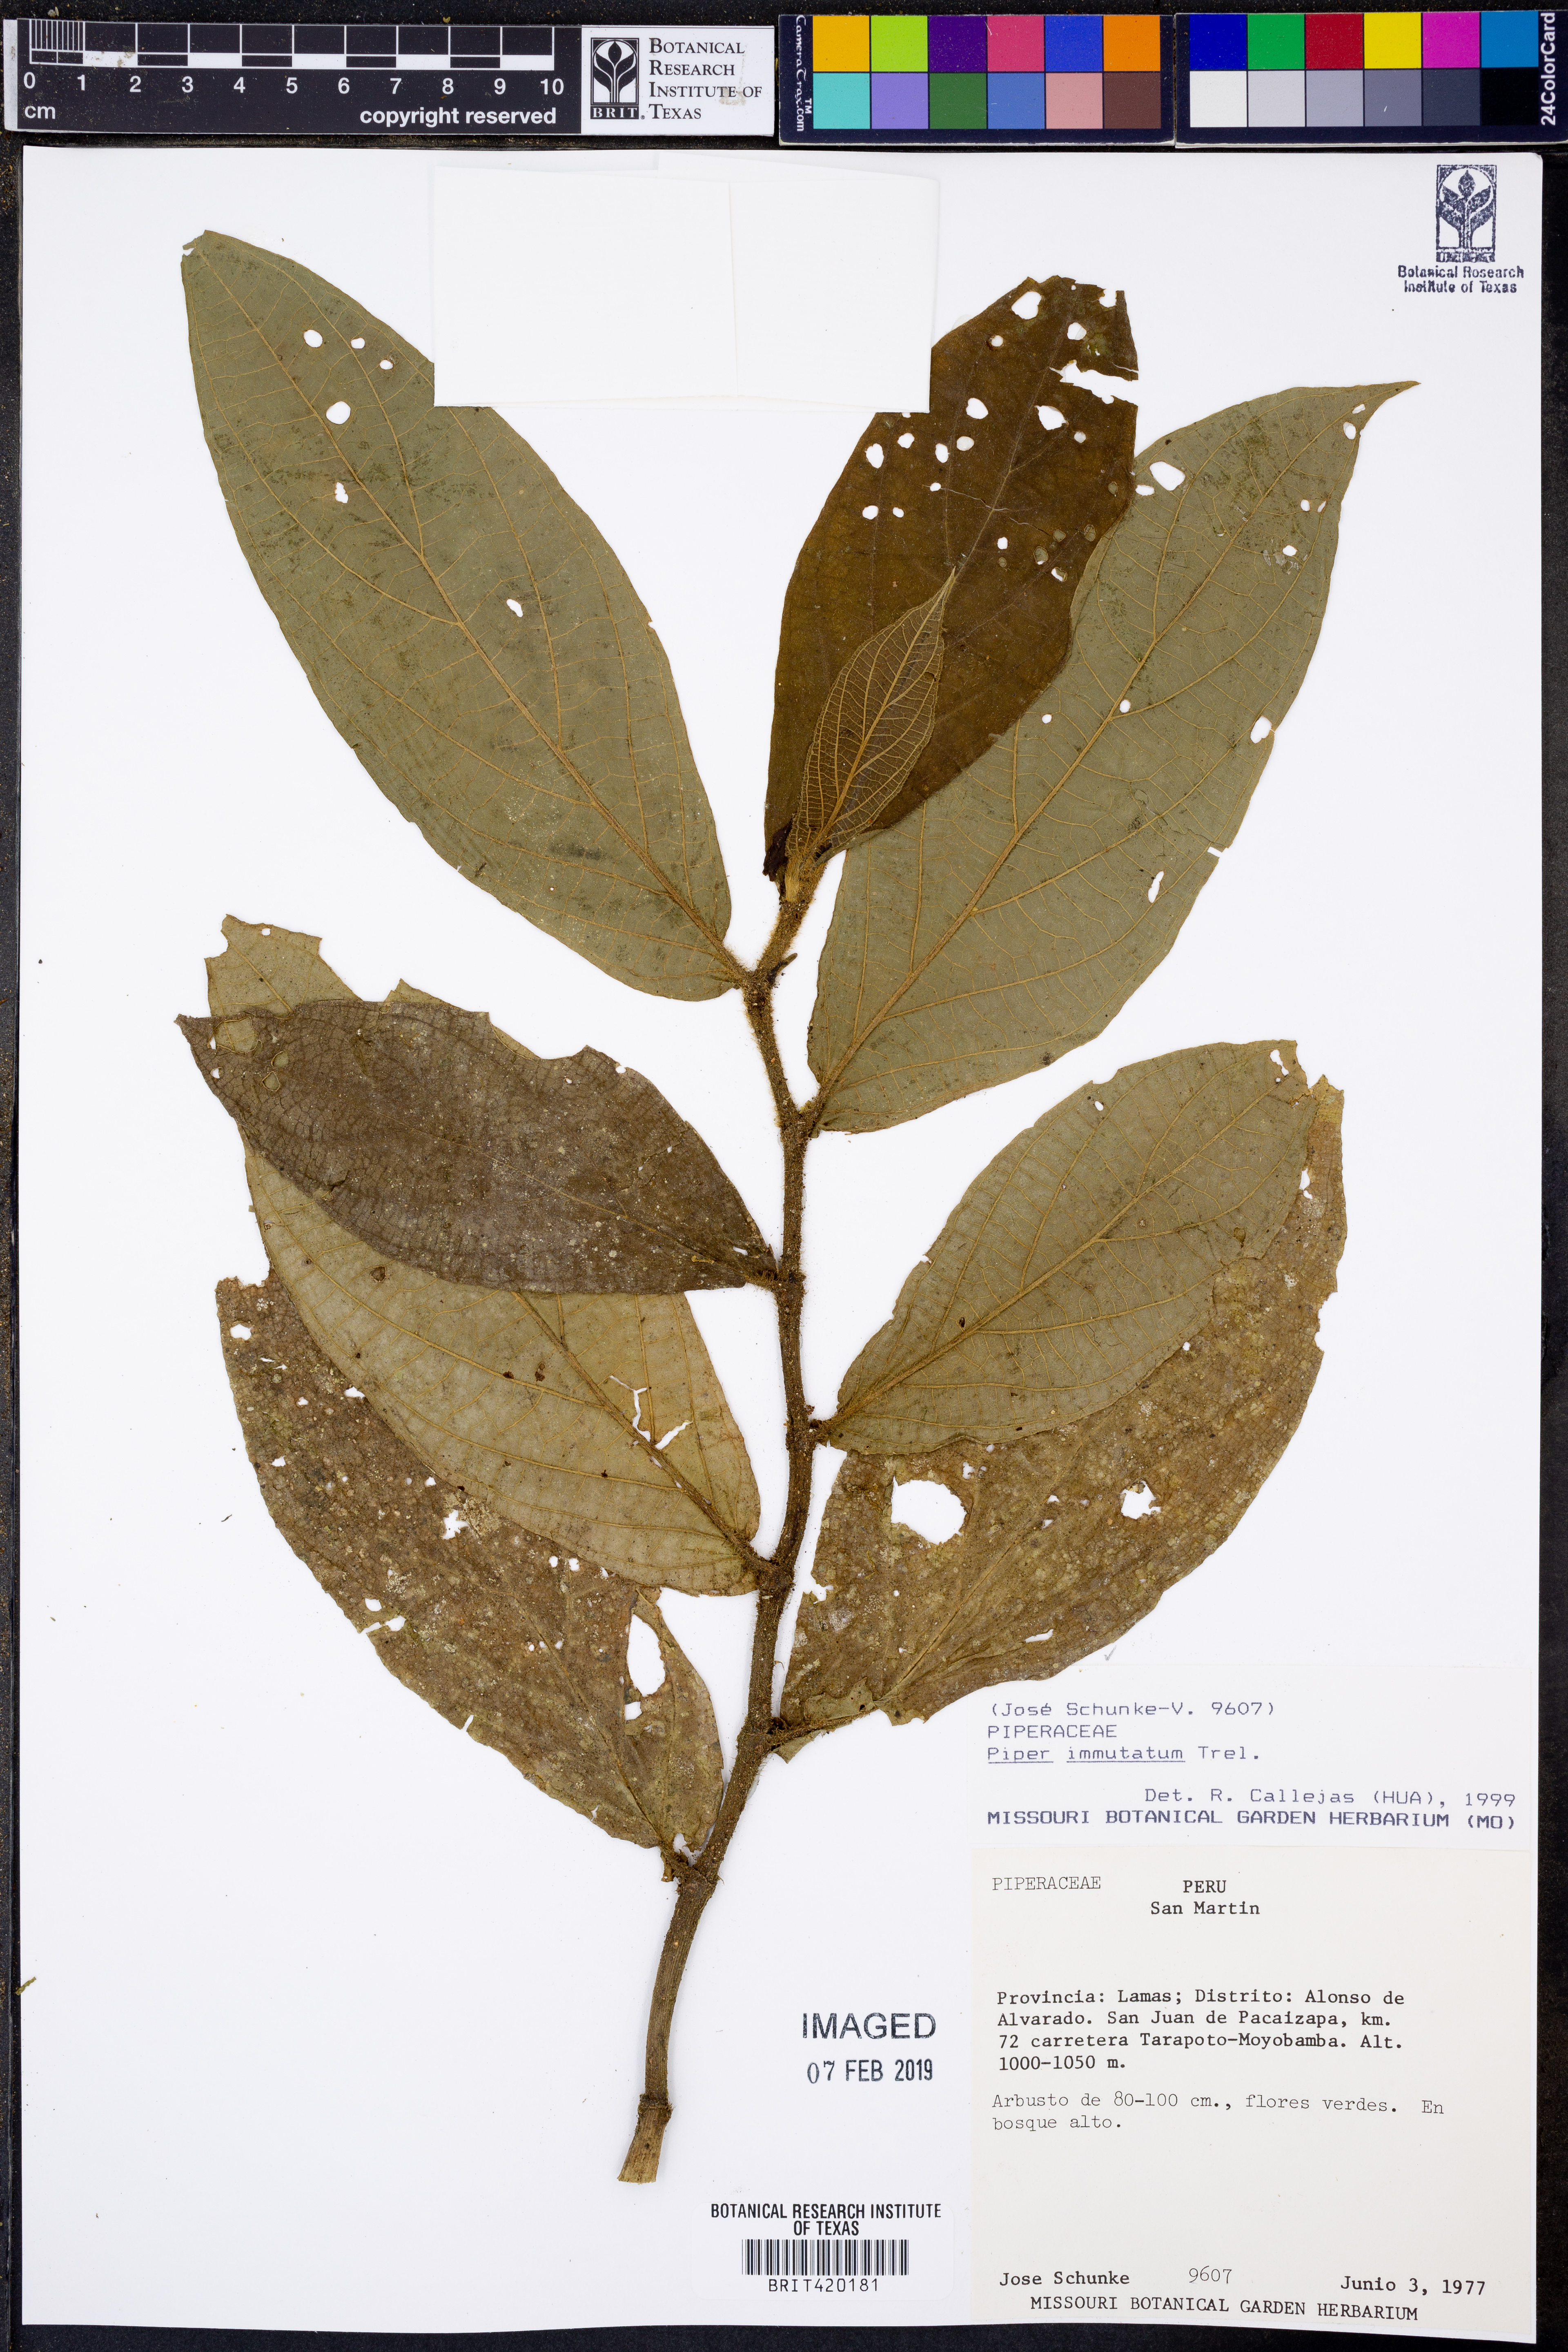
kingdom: Plantae
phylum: Tracheophyta
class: Magnoliopsida
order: Piperales
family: Piperaceae
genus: Piper
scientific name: Piper immutatum
